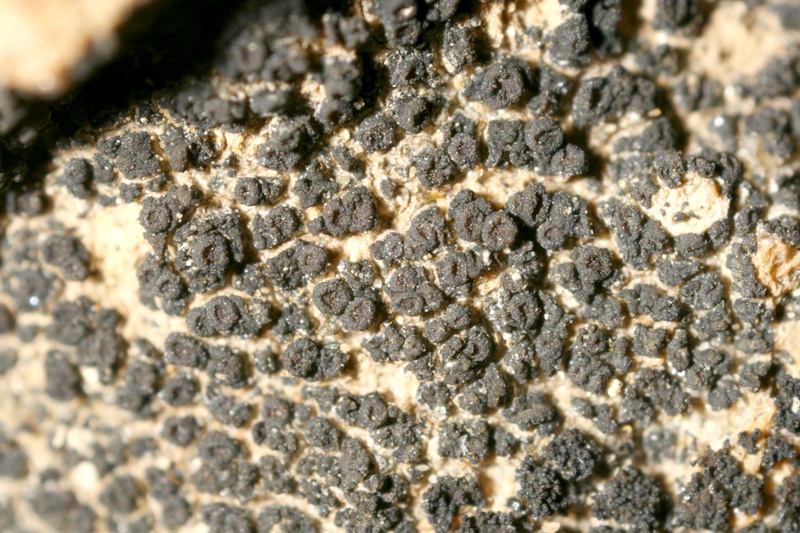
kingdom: Fungi
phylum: Ascomycota
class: Lichinomycetes
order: Lichinales
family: Lichinaceae
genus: Psorotichia
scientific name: Psorotichia schaereri
